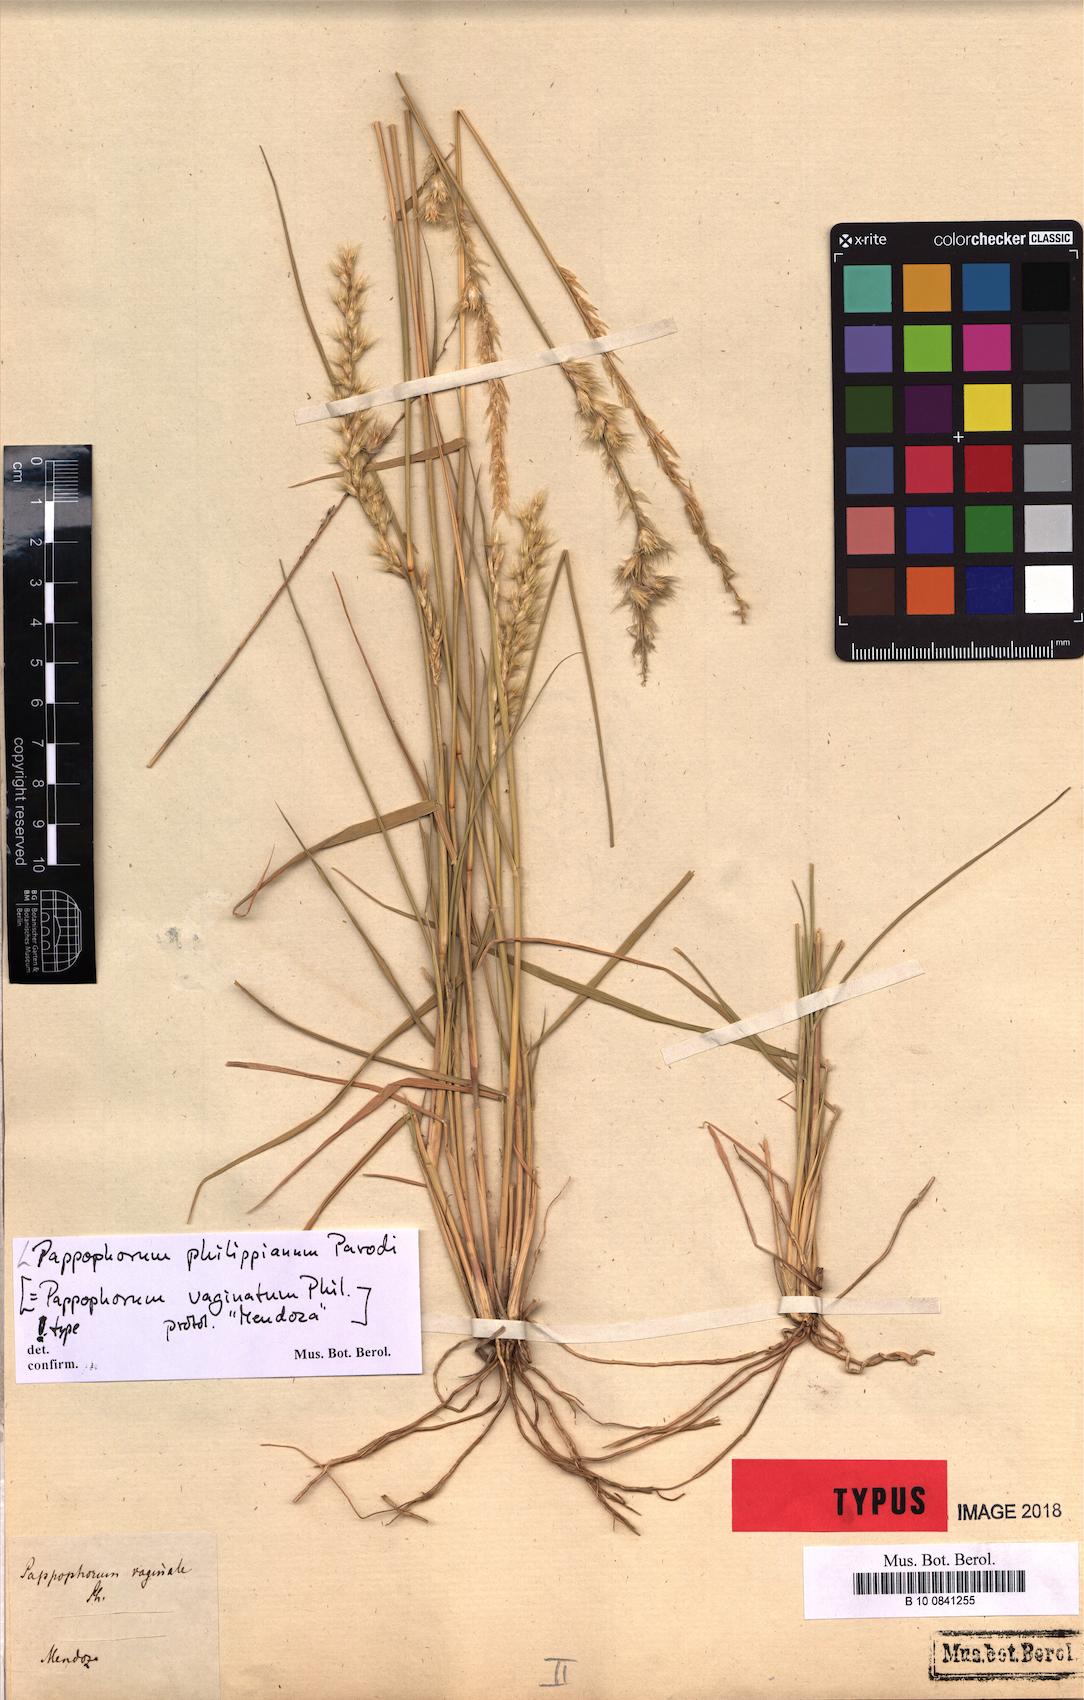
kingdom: Plantae
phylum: Tracheophyta
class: Liliopsida
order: Poales
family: Poaceae
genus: Pappophorum
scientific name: Pappophorum philippianum
